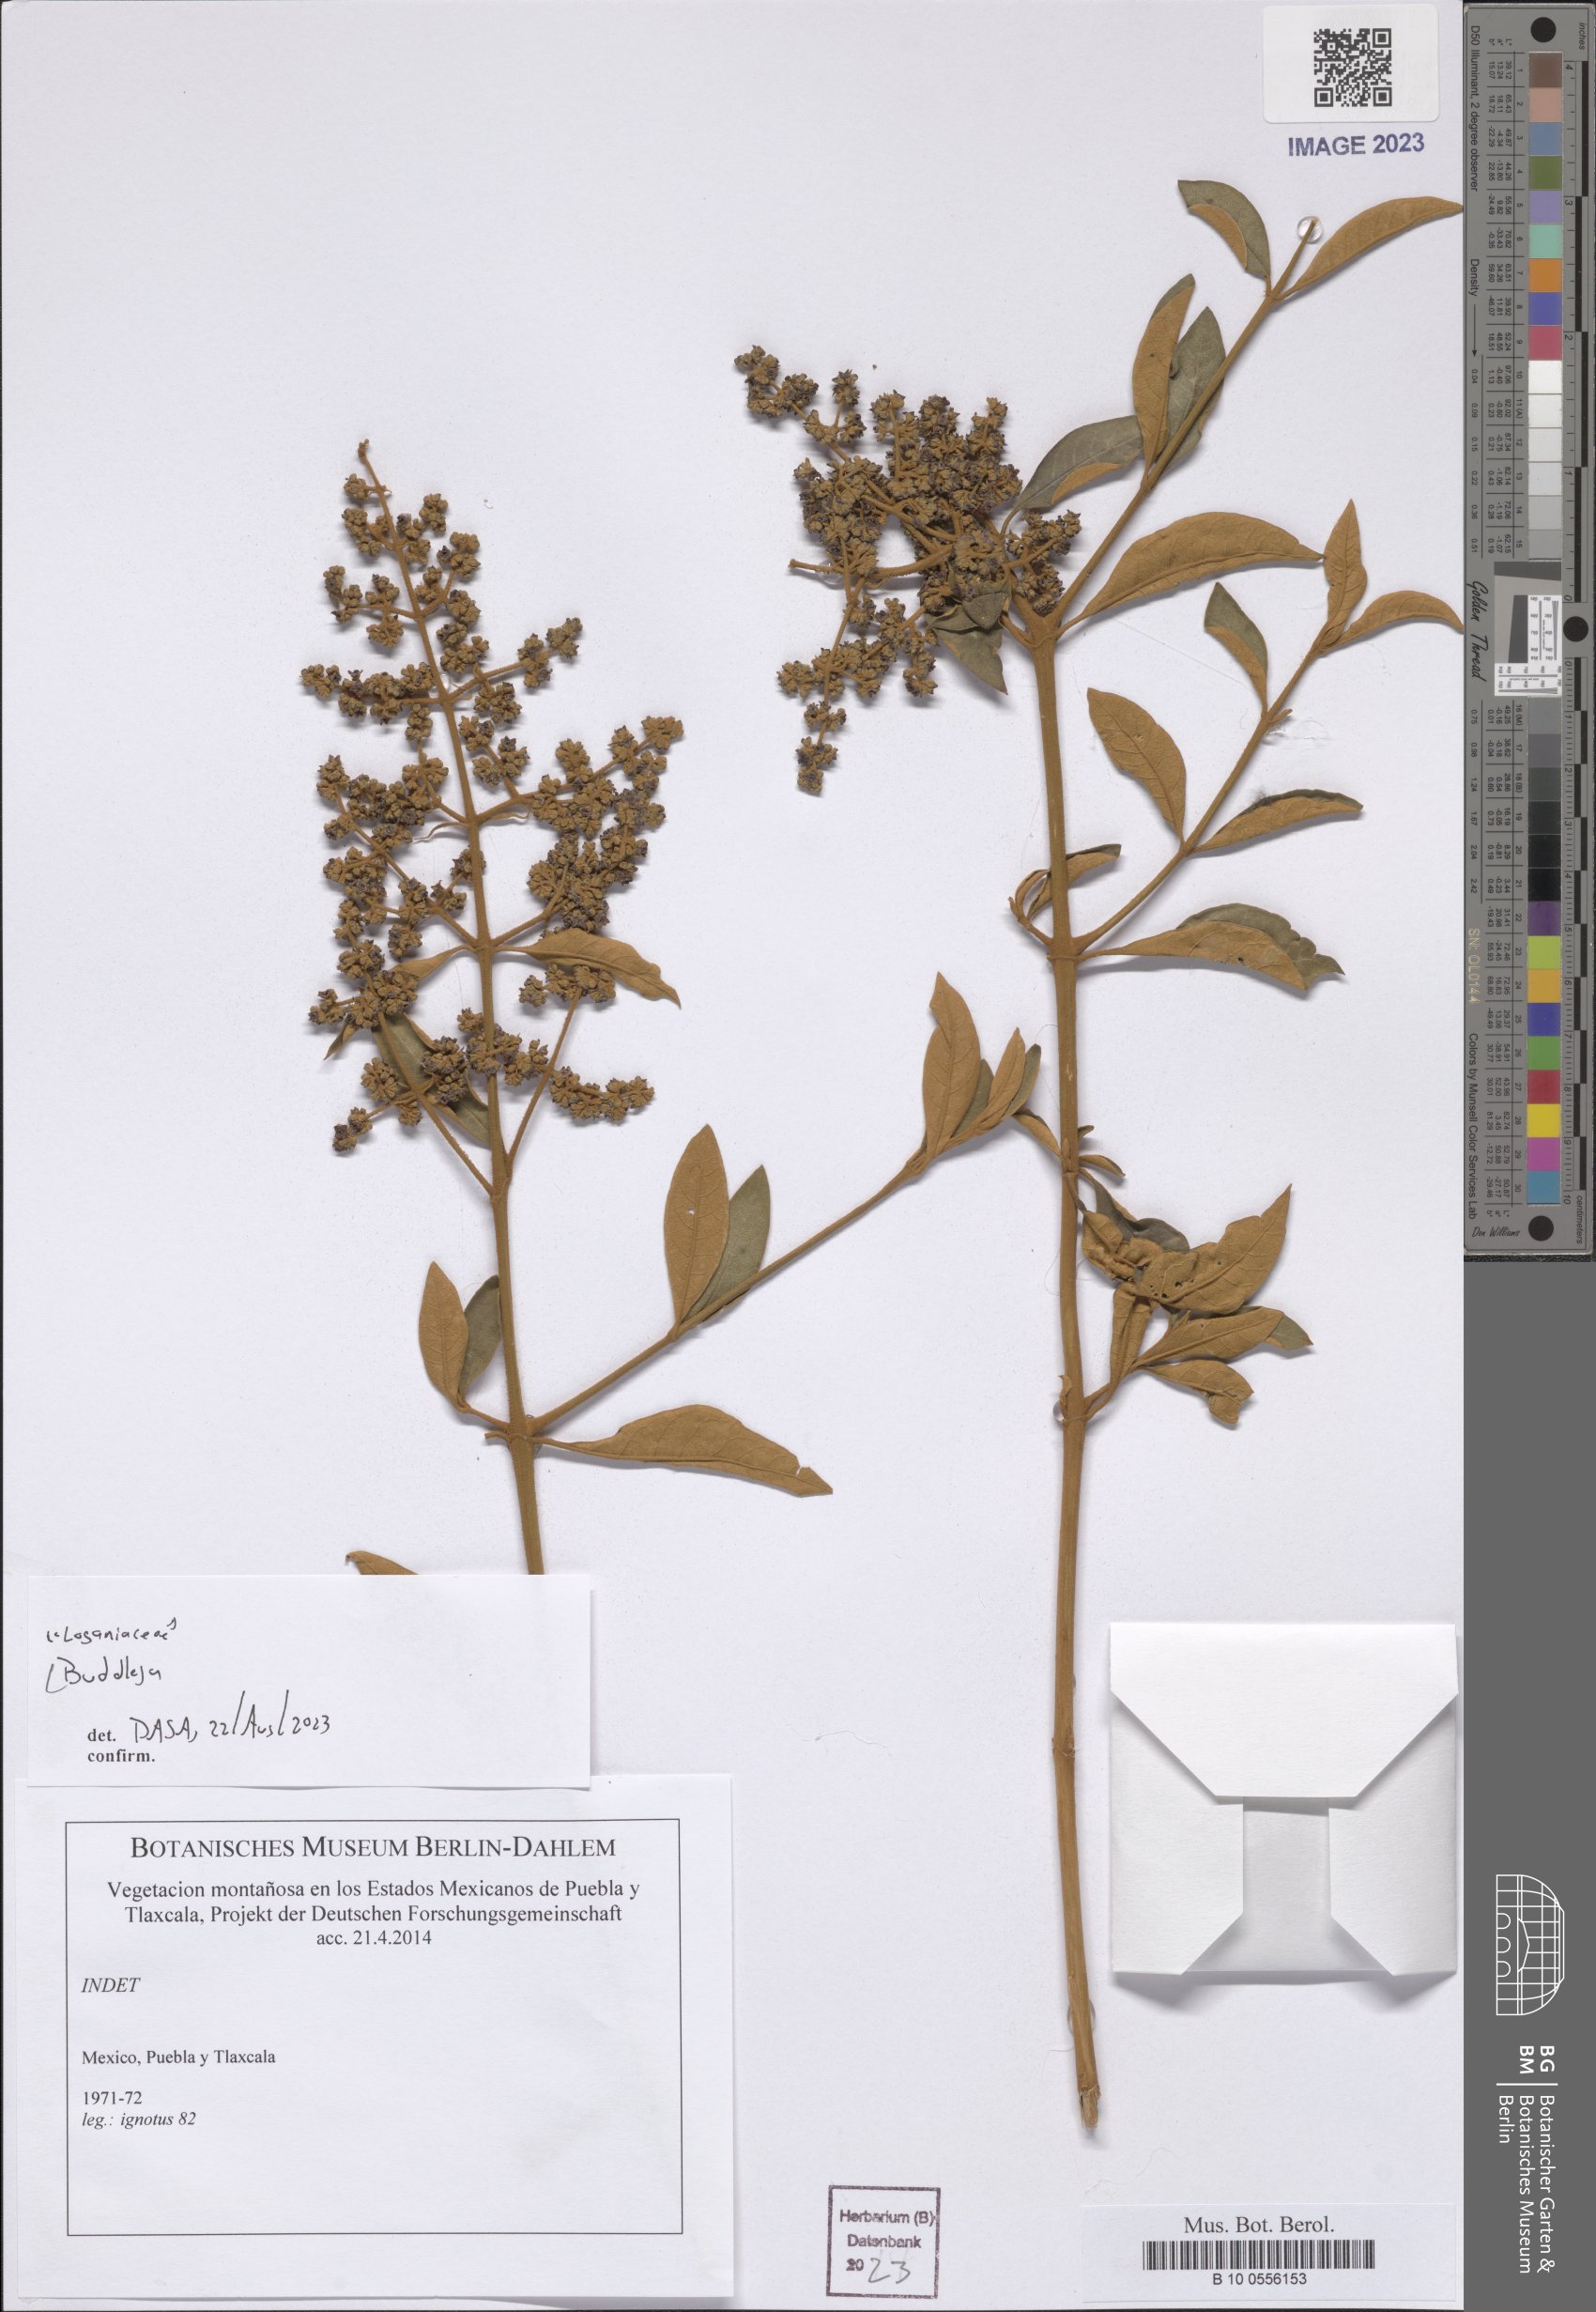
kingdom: Plantae
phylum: Tracheophyta
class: Magnoliopsida
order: Lamiales
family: Scrophulariaceae
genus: Buddleja
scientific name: Buddleja
